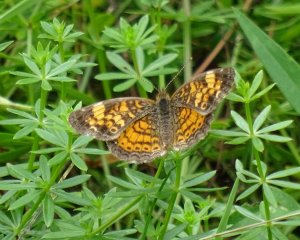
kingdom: Animalia
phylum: Arthropoda
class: Insecta
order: Lepidoptera
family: Nymphalidae
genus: Phyciodes
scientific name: Phyciodes tharos
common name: Northern Crescent
